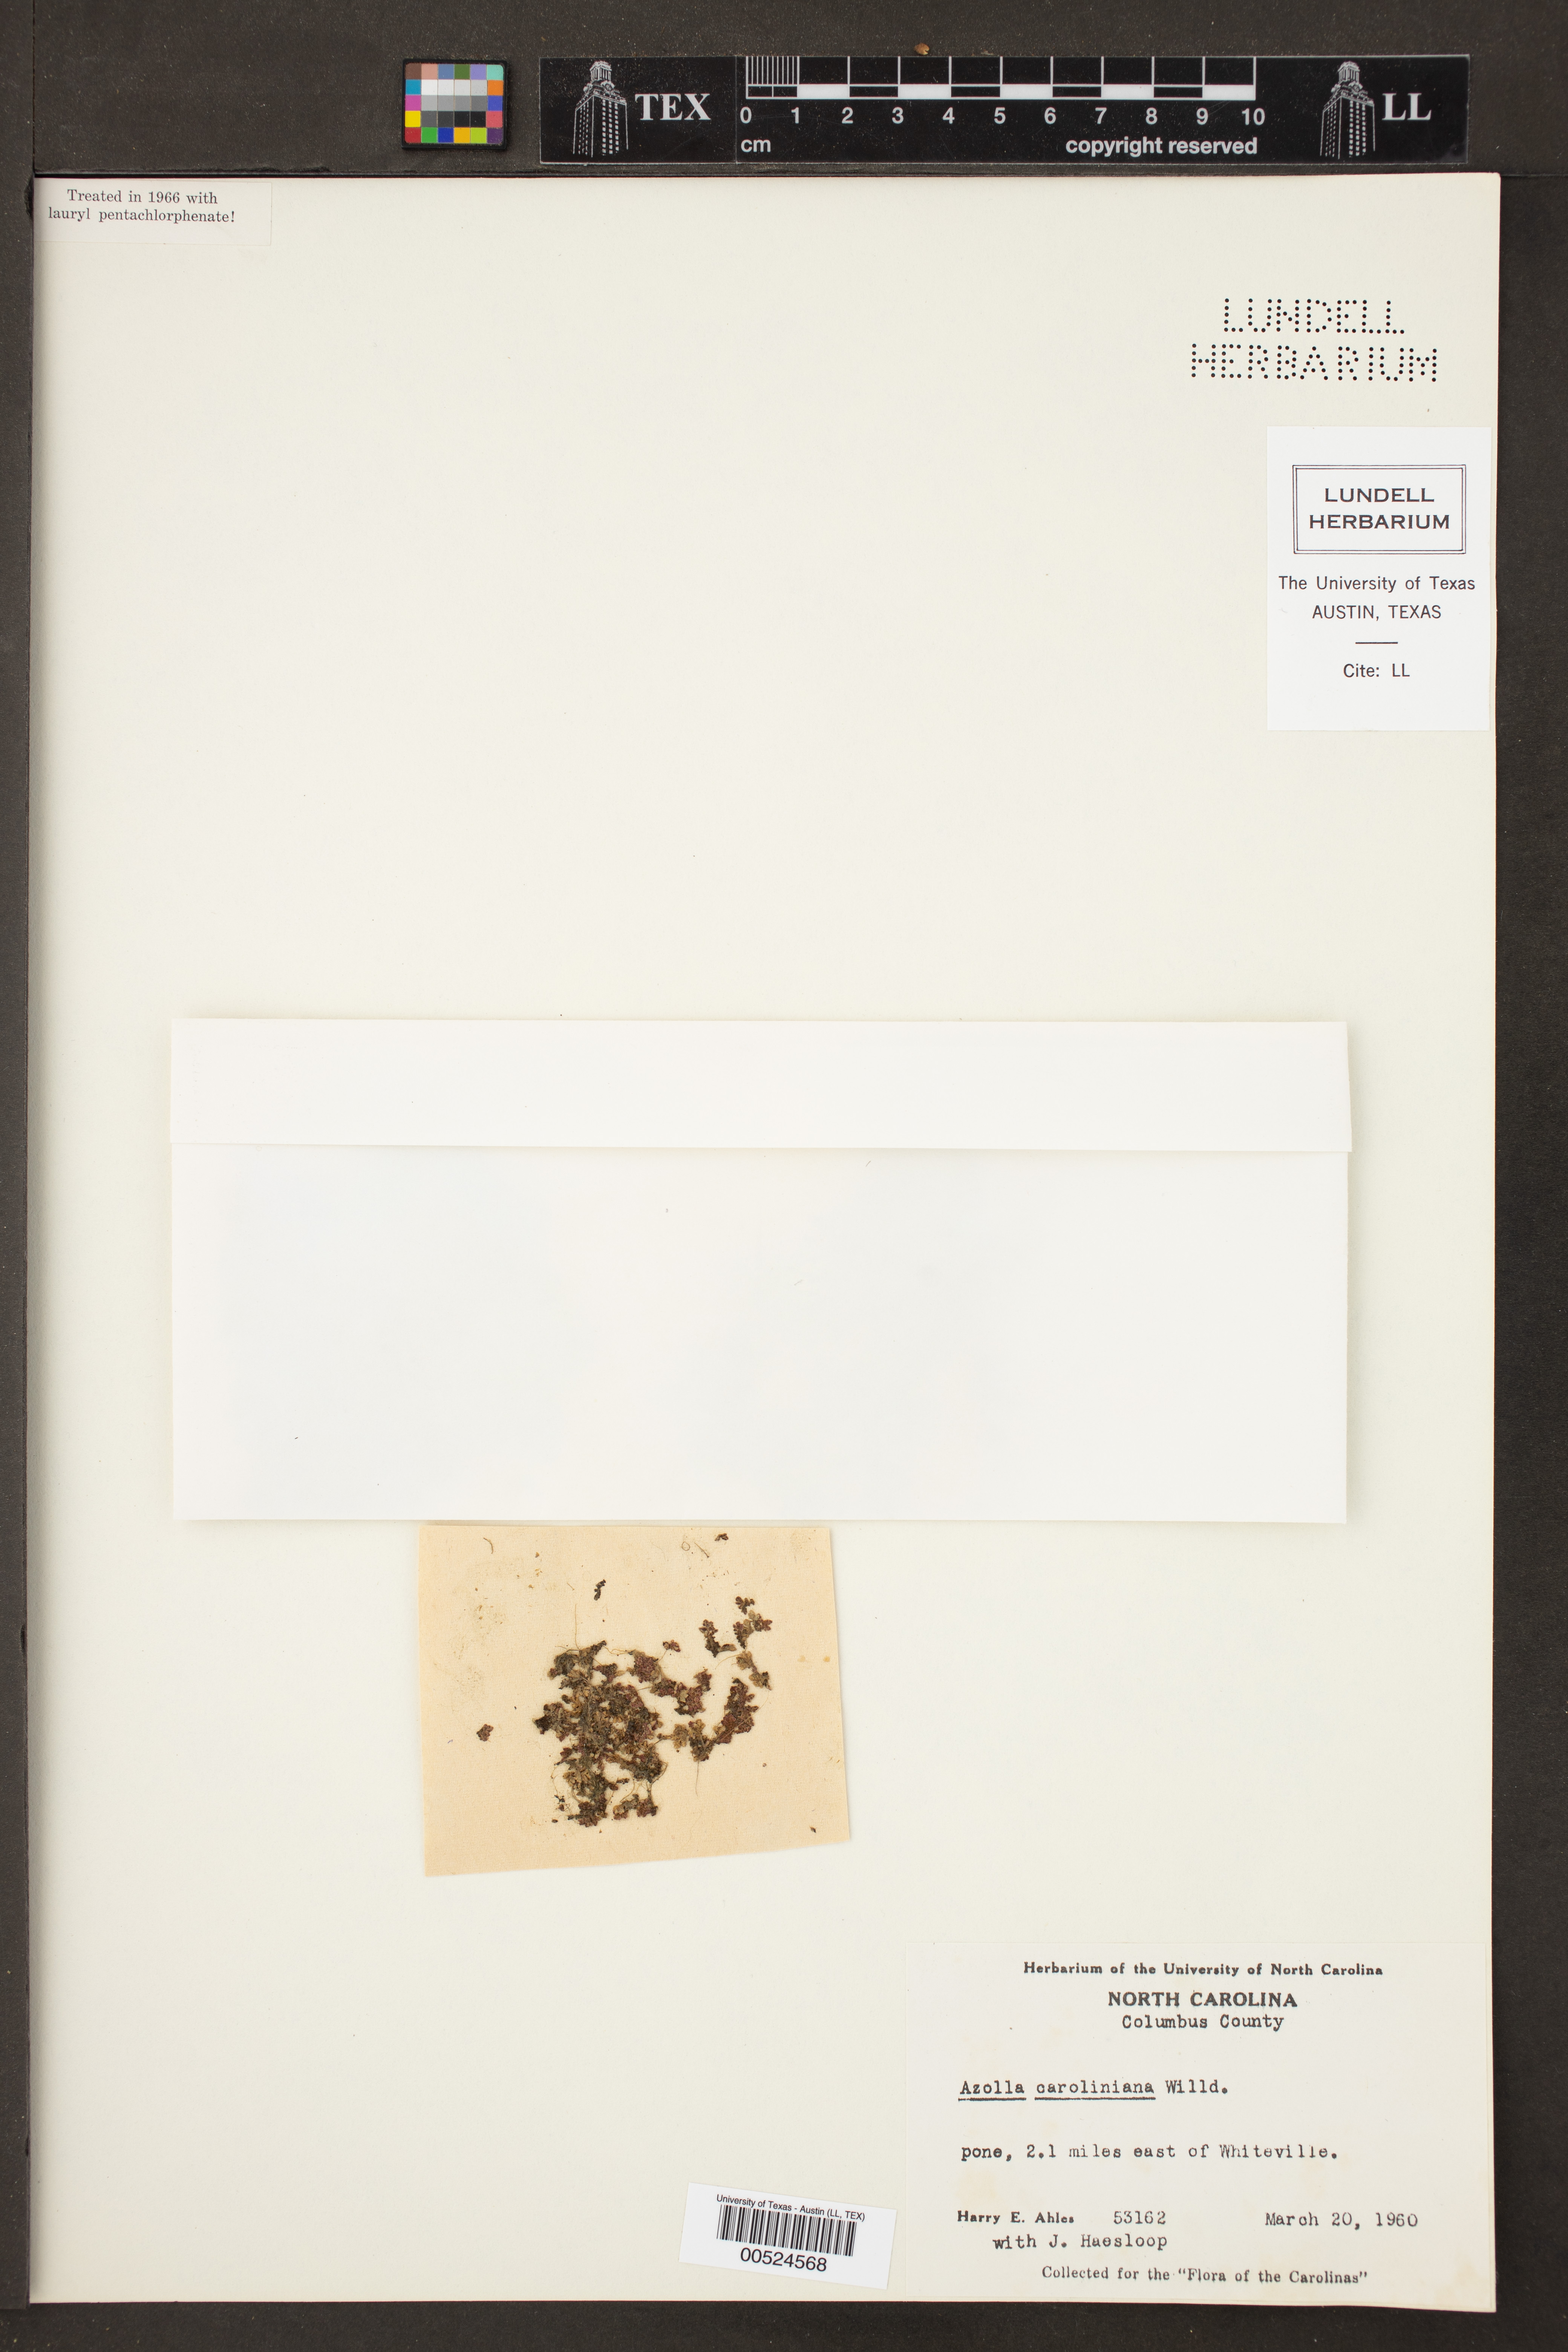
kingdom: Plantae
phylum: Tracheophyta
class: Polypodiopsida
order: Salviniales
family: Salviniaceae
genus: Azolla
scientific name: Azolla caroliniana
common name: Carolina mosquitofern
